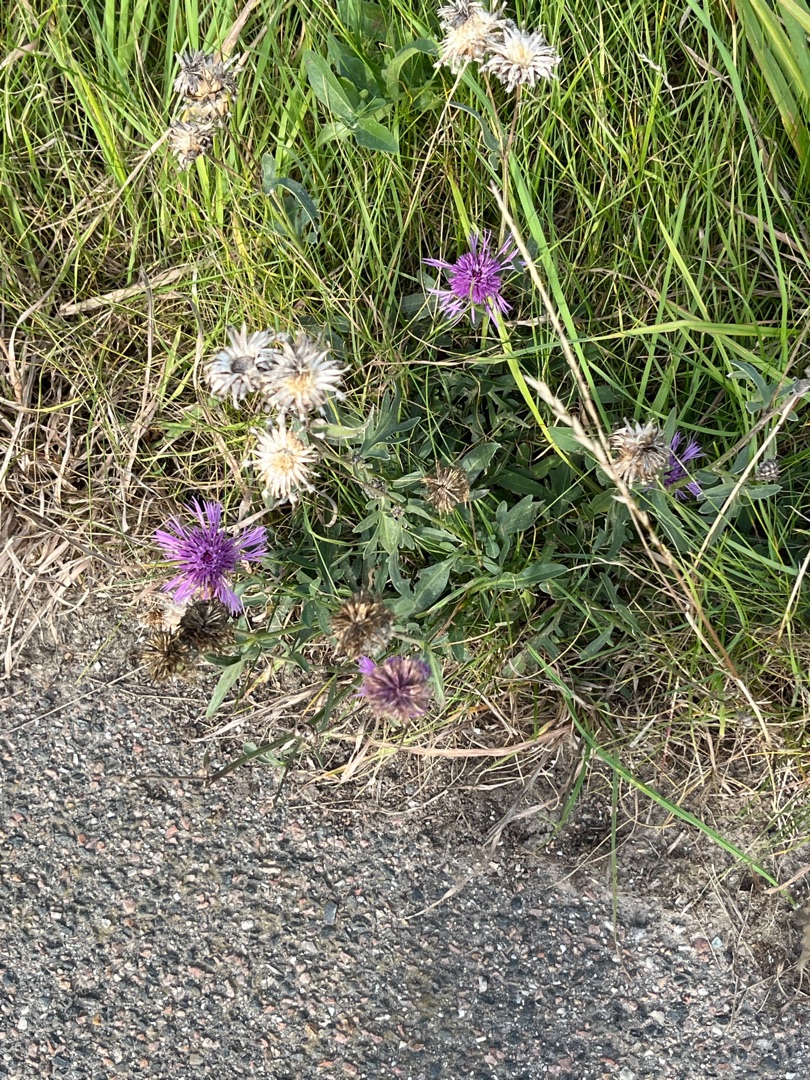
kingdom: Plantae
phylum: Tracheophyta
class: Magnoliopsida
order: Asterales
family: Asteraceae
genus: Centaurea
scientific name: Centaurea scabiosa
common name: Stor knopurt
